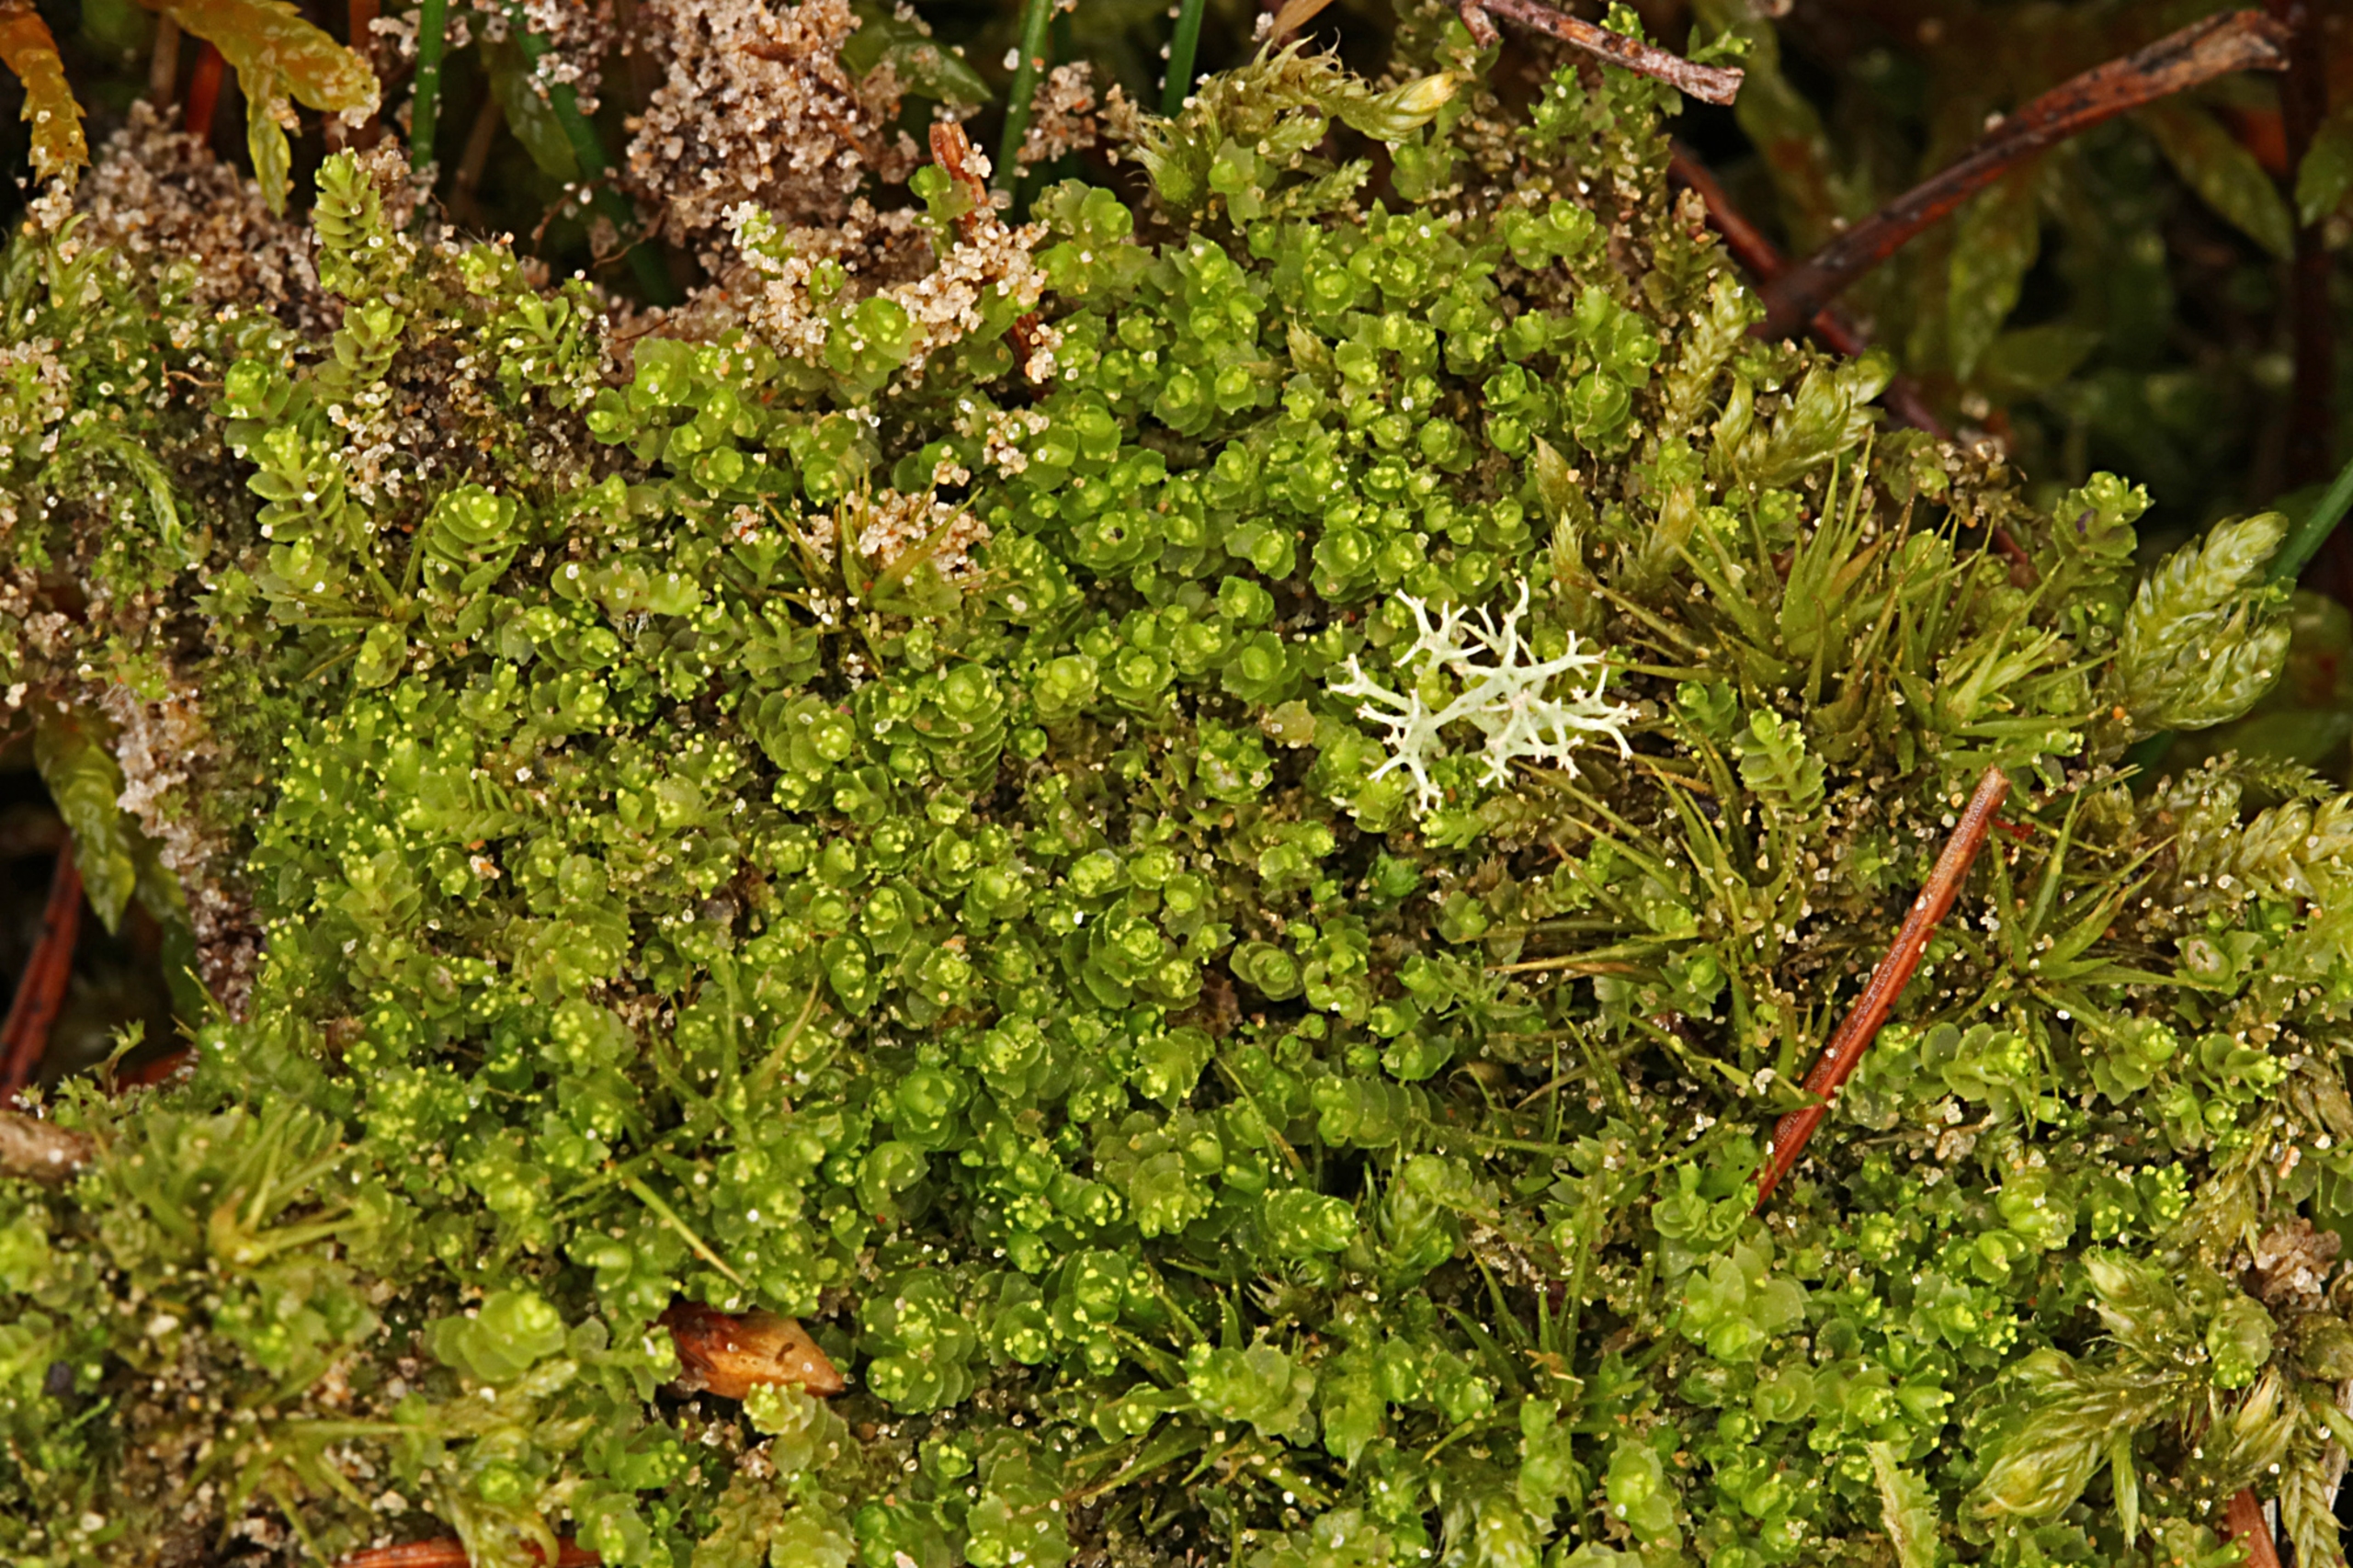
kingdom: Plantae
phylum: Marchantiophyta
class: Jungermanniopsida
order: Jungermanniales
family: Lophoziaceae
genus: Lophozia
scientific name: Lophozia wenzelii
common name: Skeblad-foldbæger
